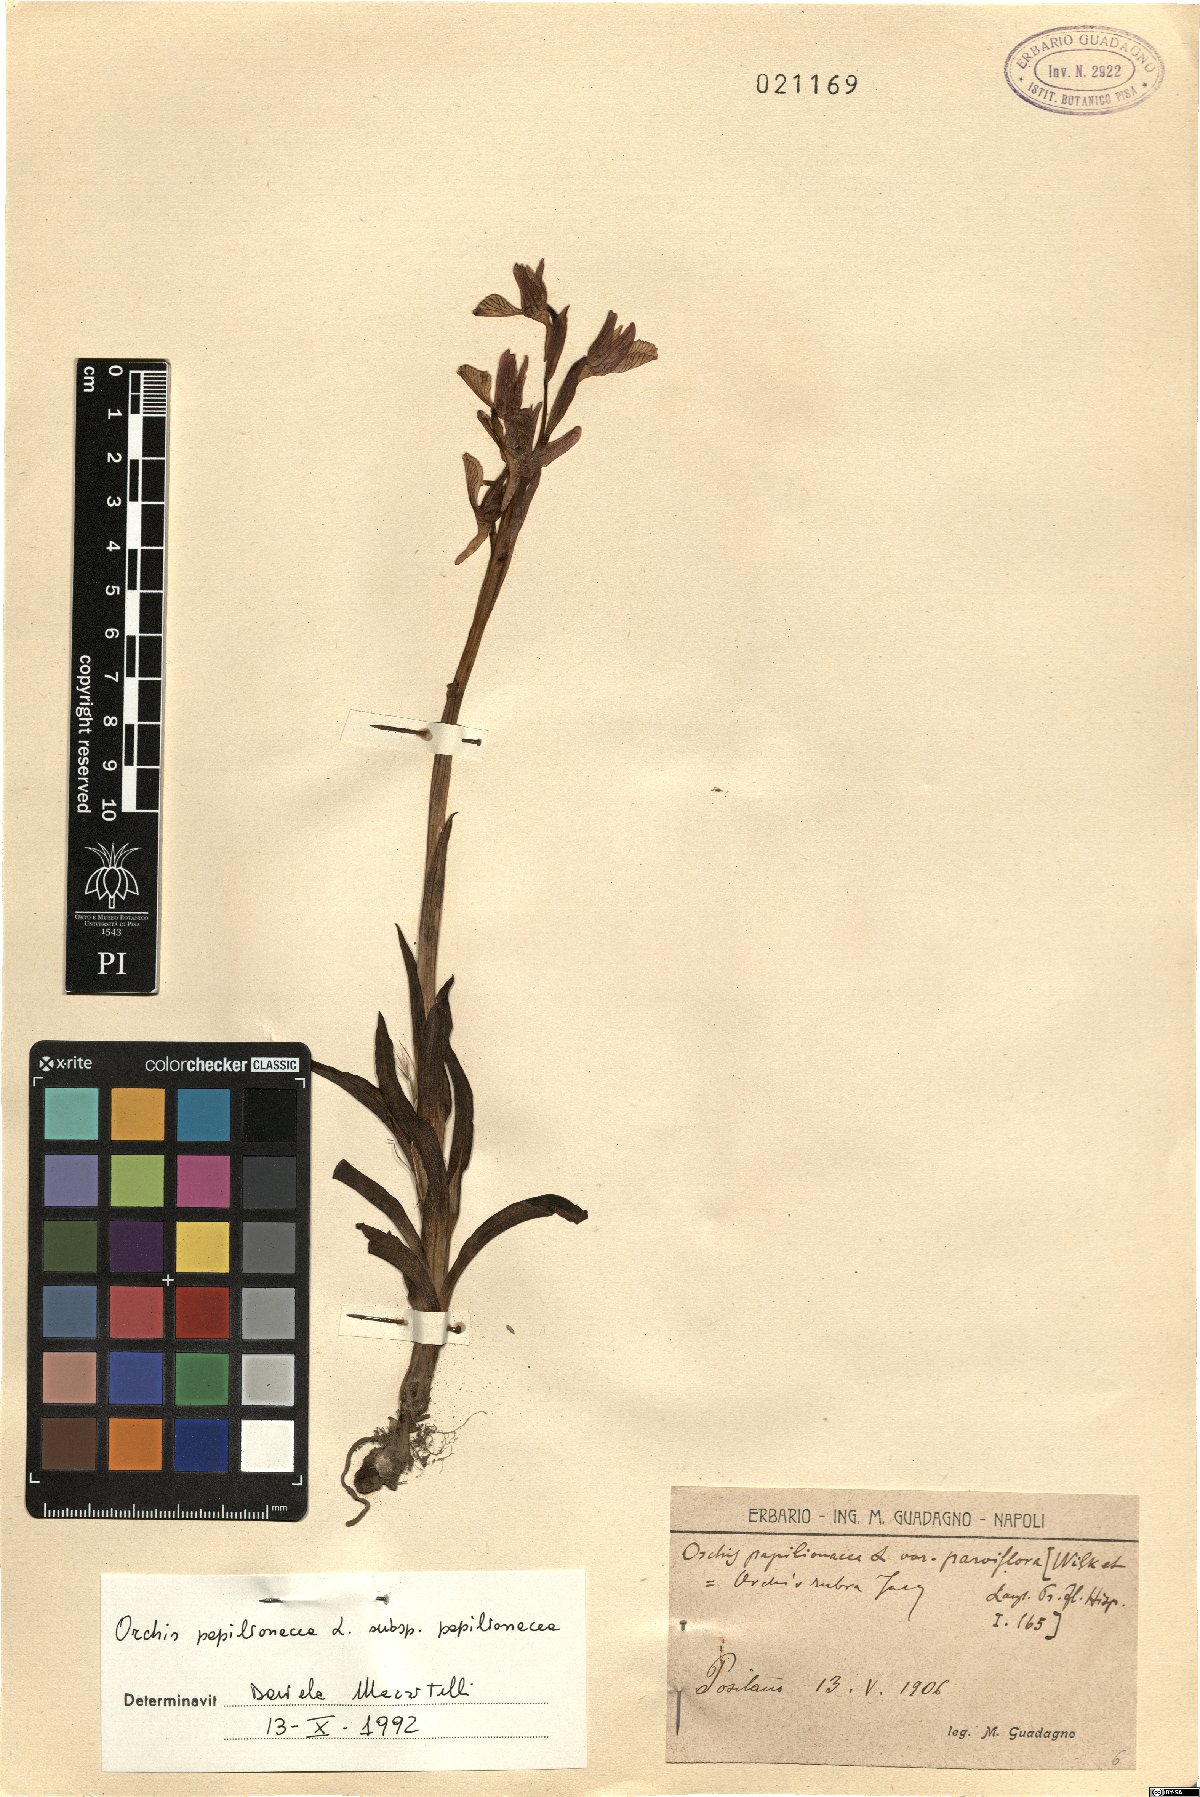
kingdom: Plantae
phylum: Tracheophyta
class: Liliopsida
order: Asparagales
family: Orchidaceae
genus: Anacamptis
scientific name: Anacamptis papilionacea
